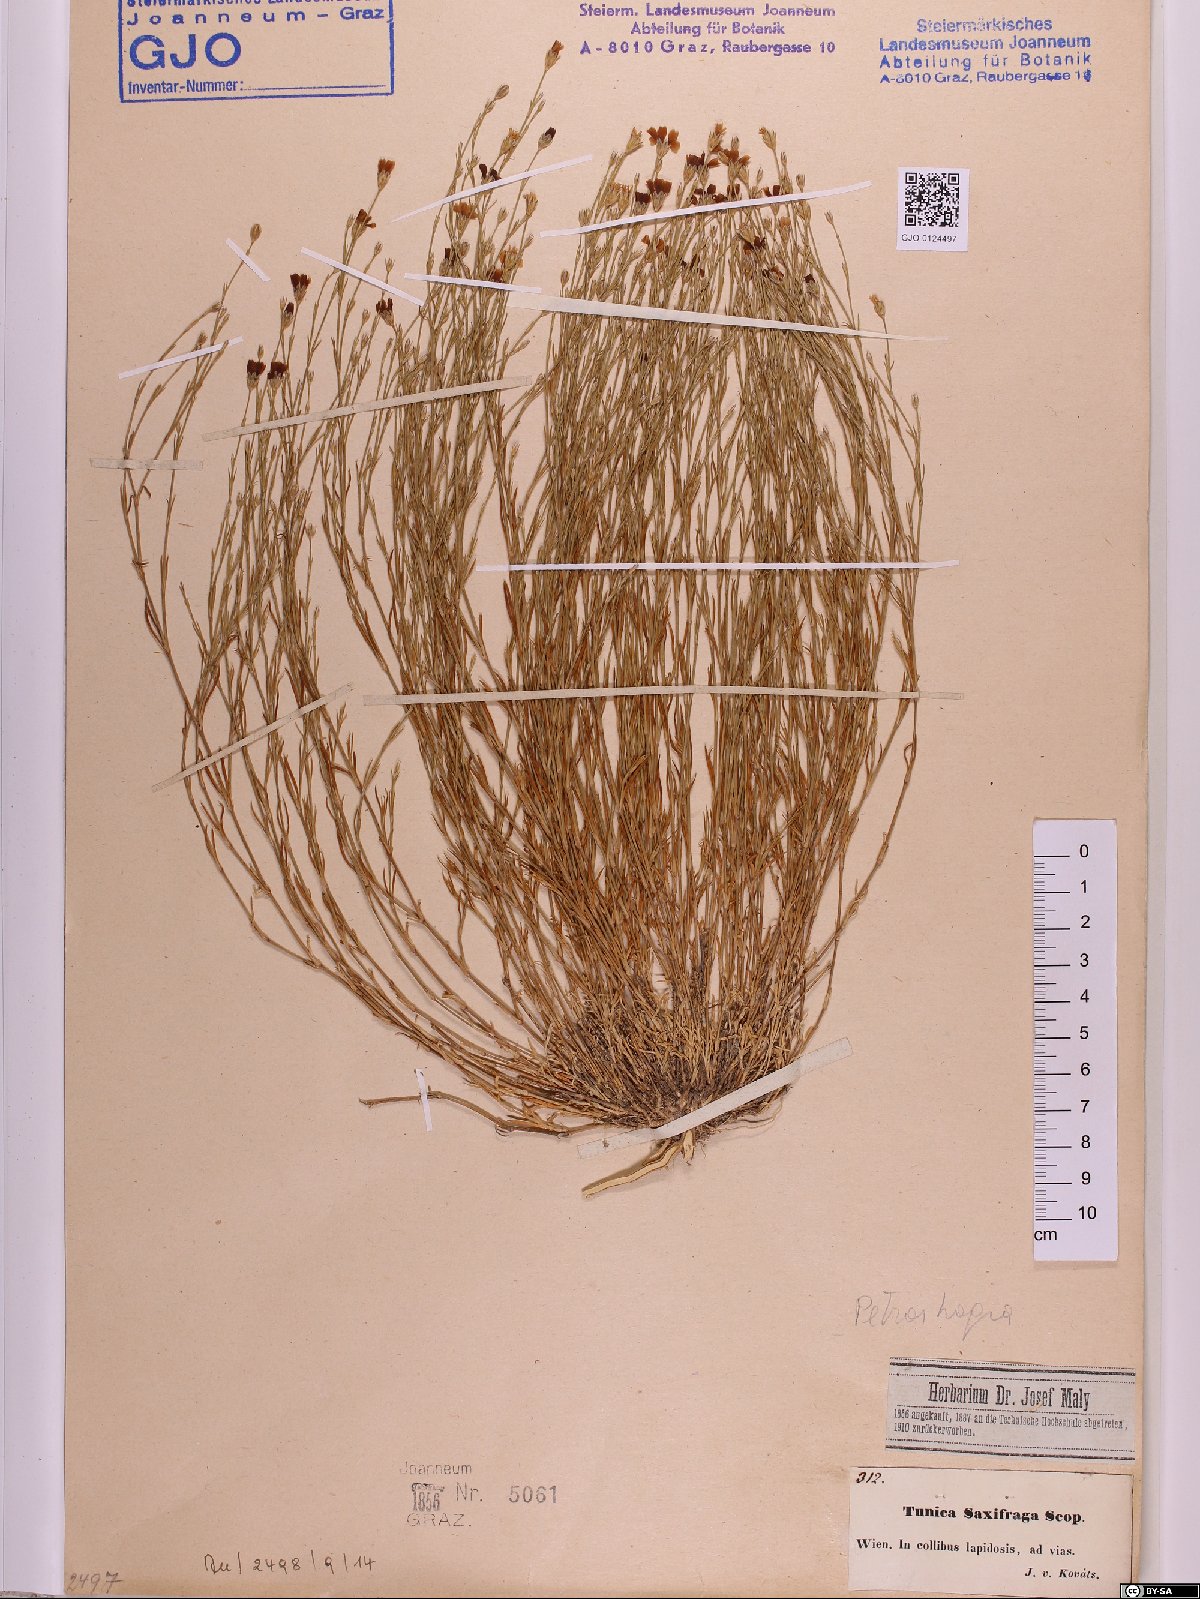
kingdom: Plantae
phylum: Tracheophyta
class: Magnoliopsida
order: Caryophyllales
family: Caryophyllaceae
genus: Petrorhagia
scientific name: Petrorhagia saxifraga
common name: Tunicflower
